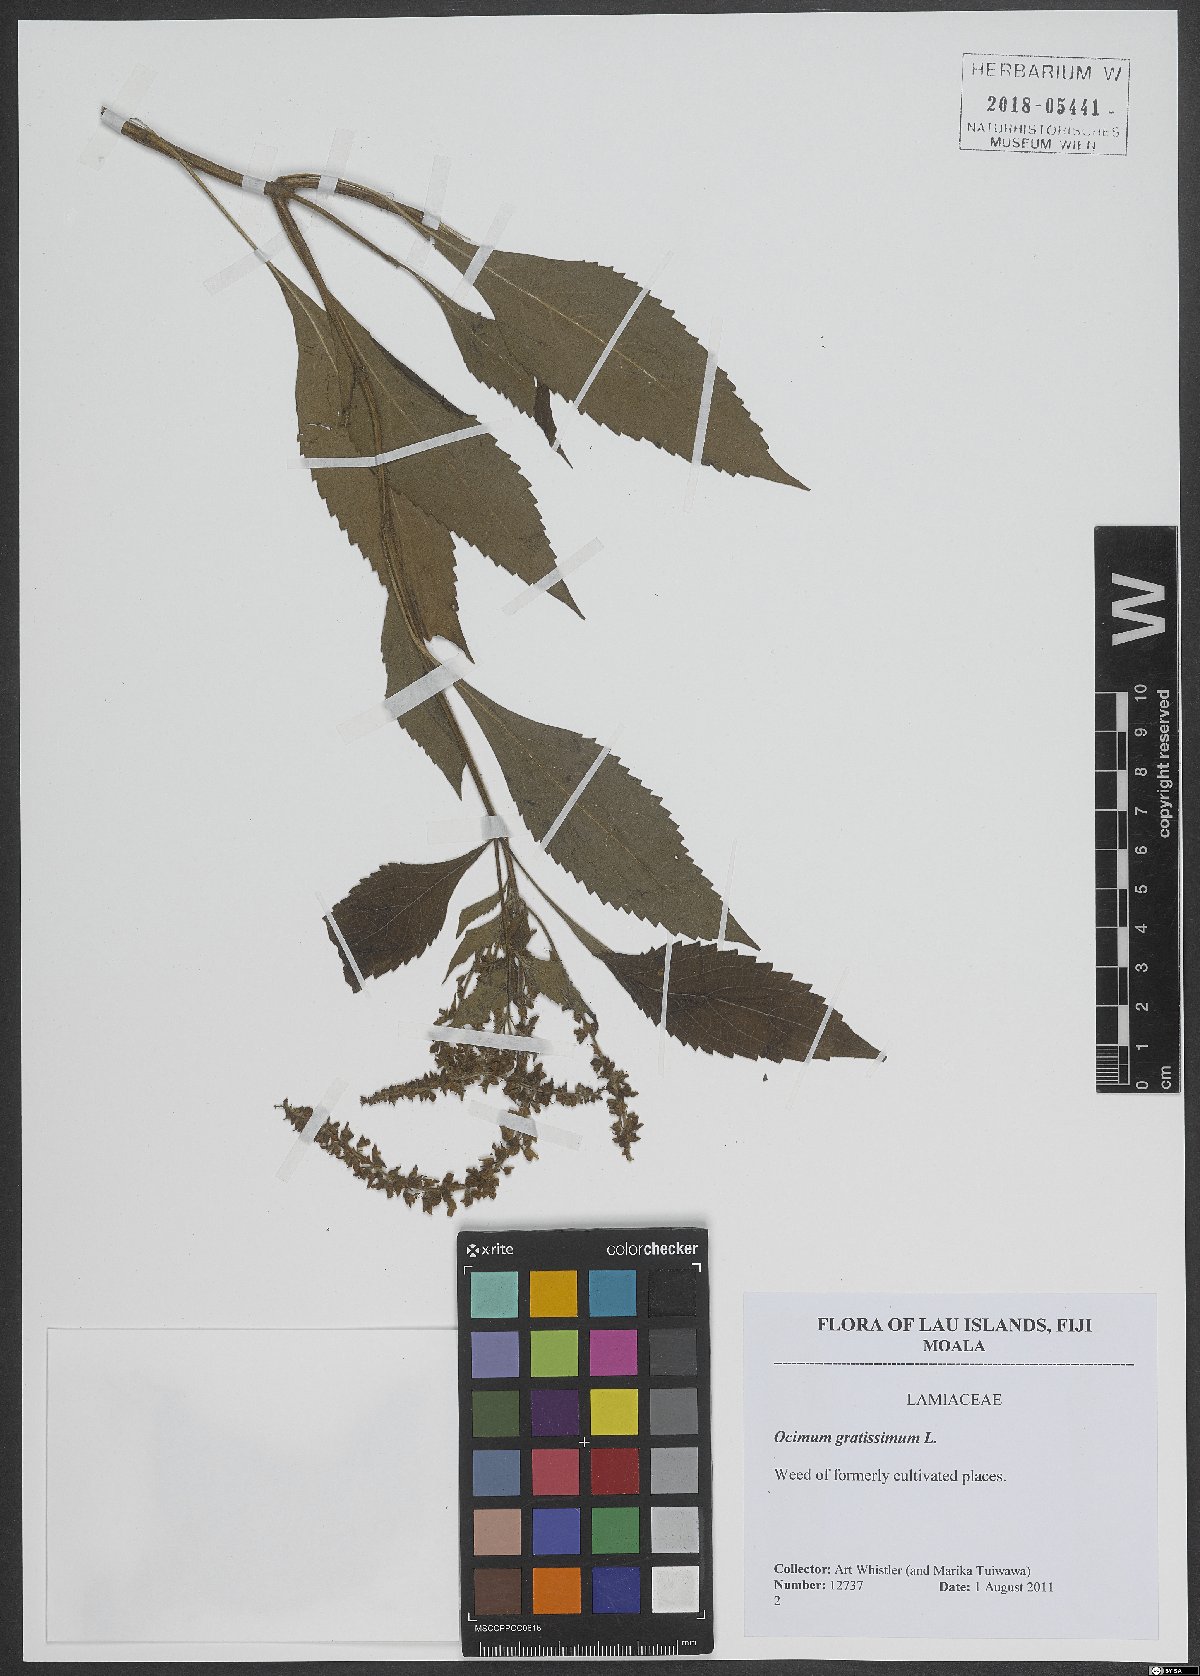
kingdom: Plantae
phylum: Tracheophyta
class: Magnoliopsida
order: Lamiales
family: Lamiaceae
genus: Ocimum
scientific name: Ocimum gratissimum
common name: African basil
